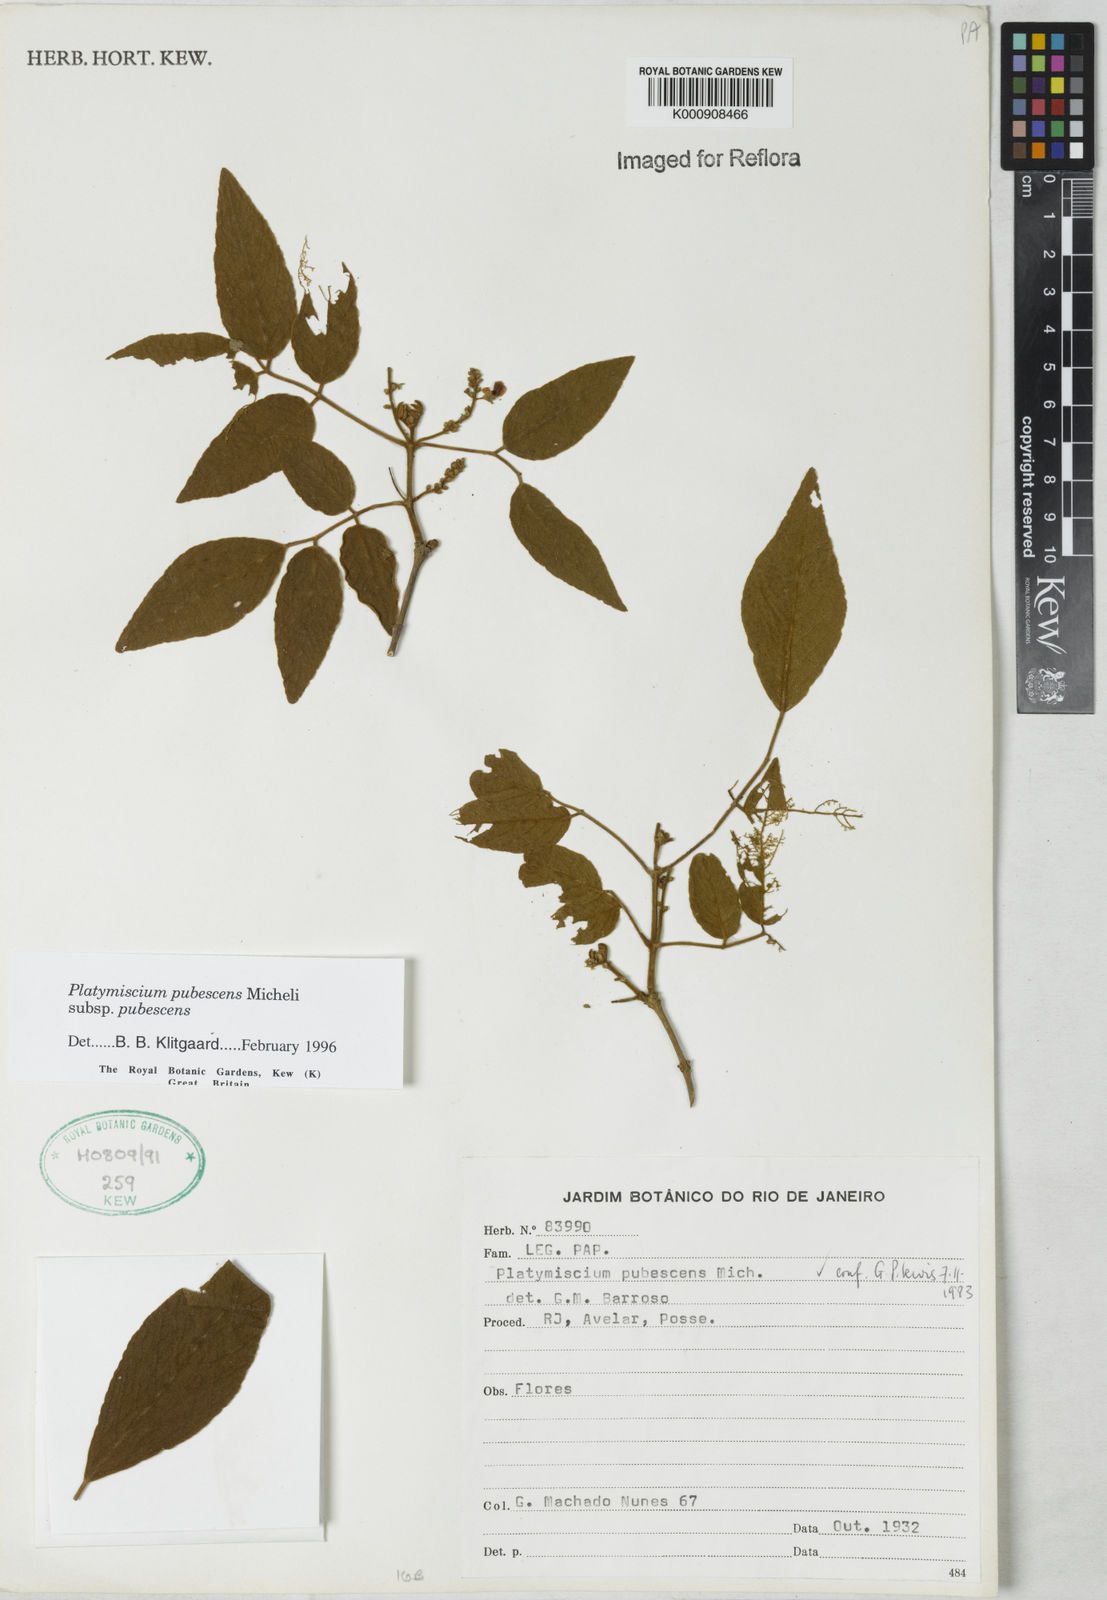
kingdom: Plantae
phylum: Tracheophyta
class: Magnoliopsida
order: Fabales
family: Fabaceae
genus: Platymiscium
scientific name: Platymiscium pubescens
